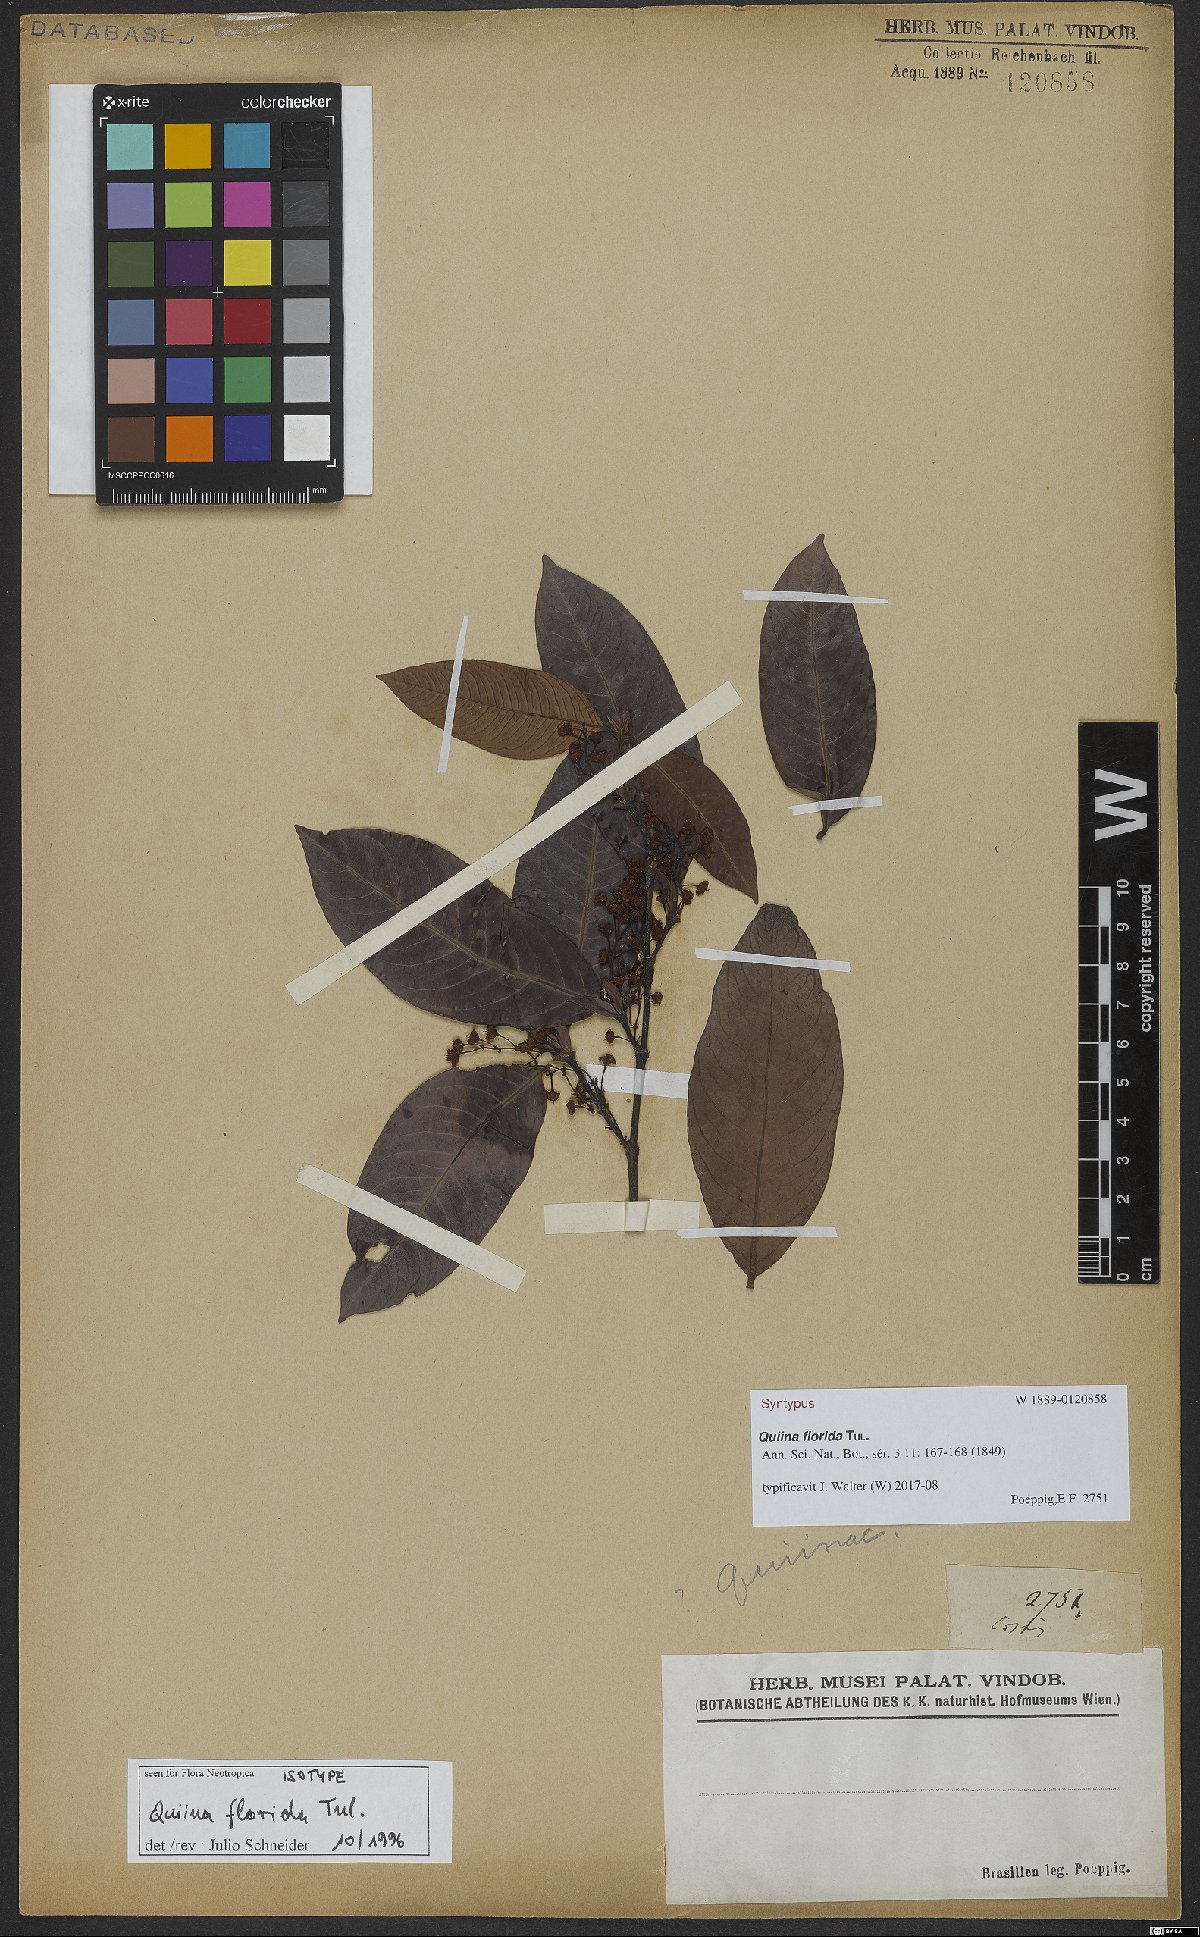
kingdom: Plantae
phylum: Tracheophyta
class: Magnoliopsida
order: Malpighiales
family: Quiinaceae
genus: Quiina
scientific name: Quiina florida
